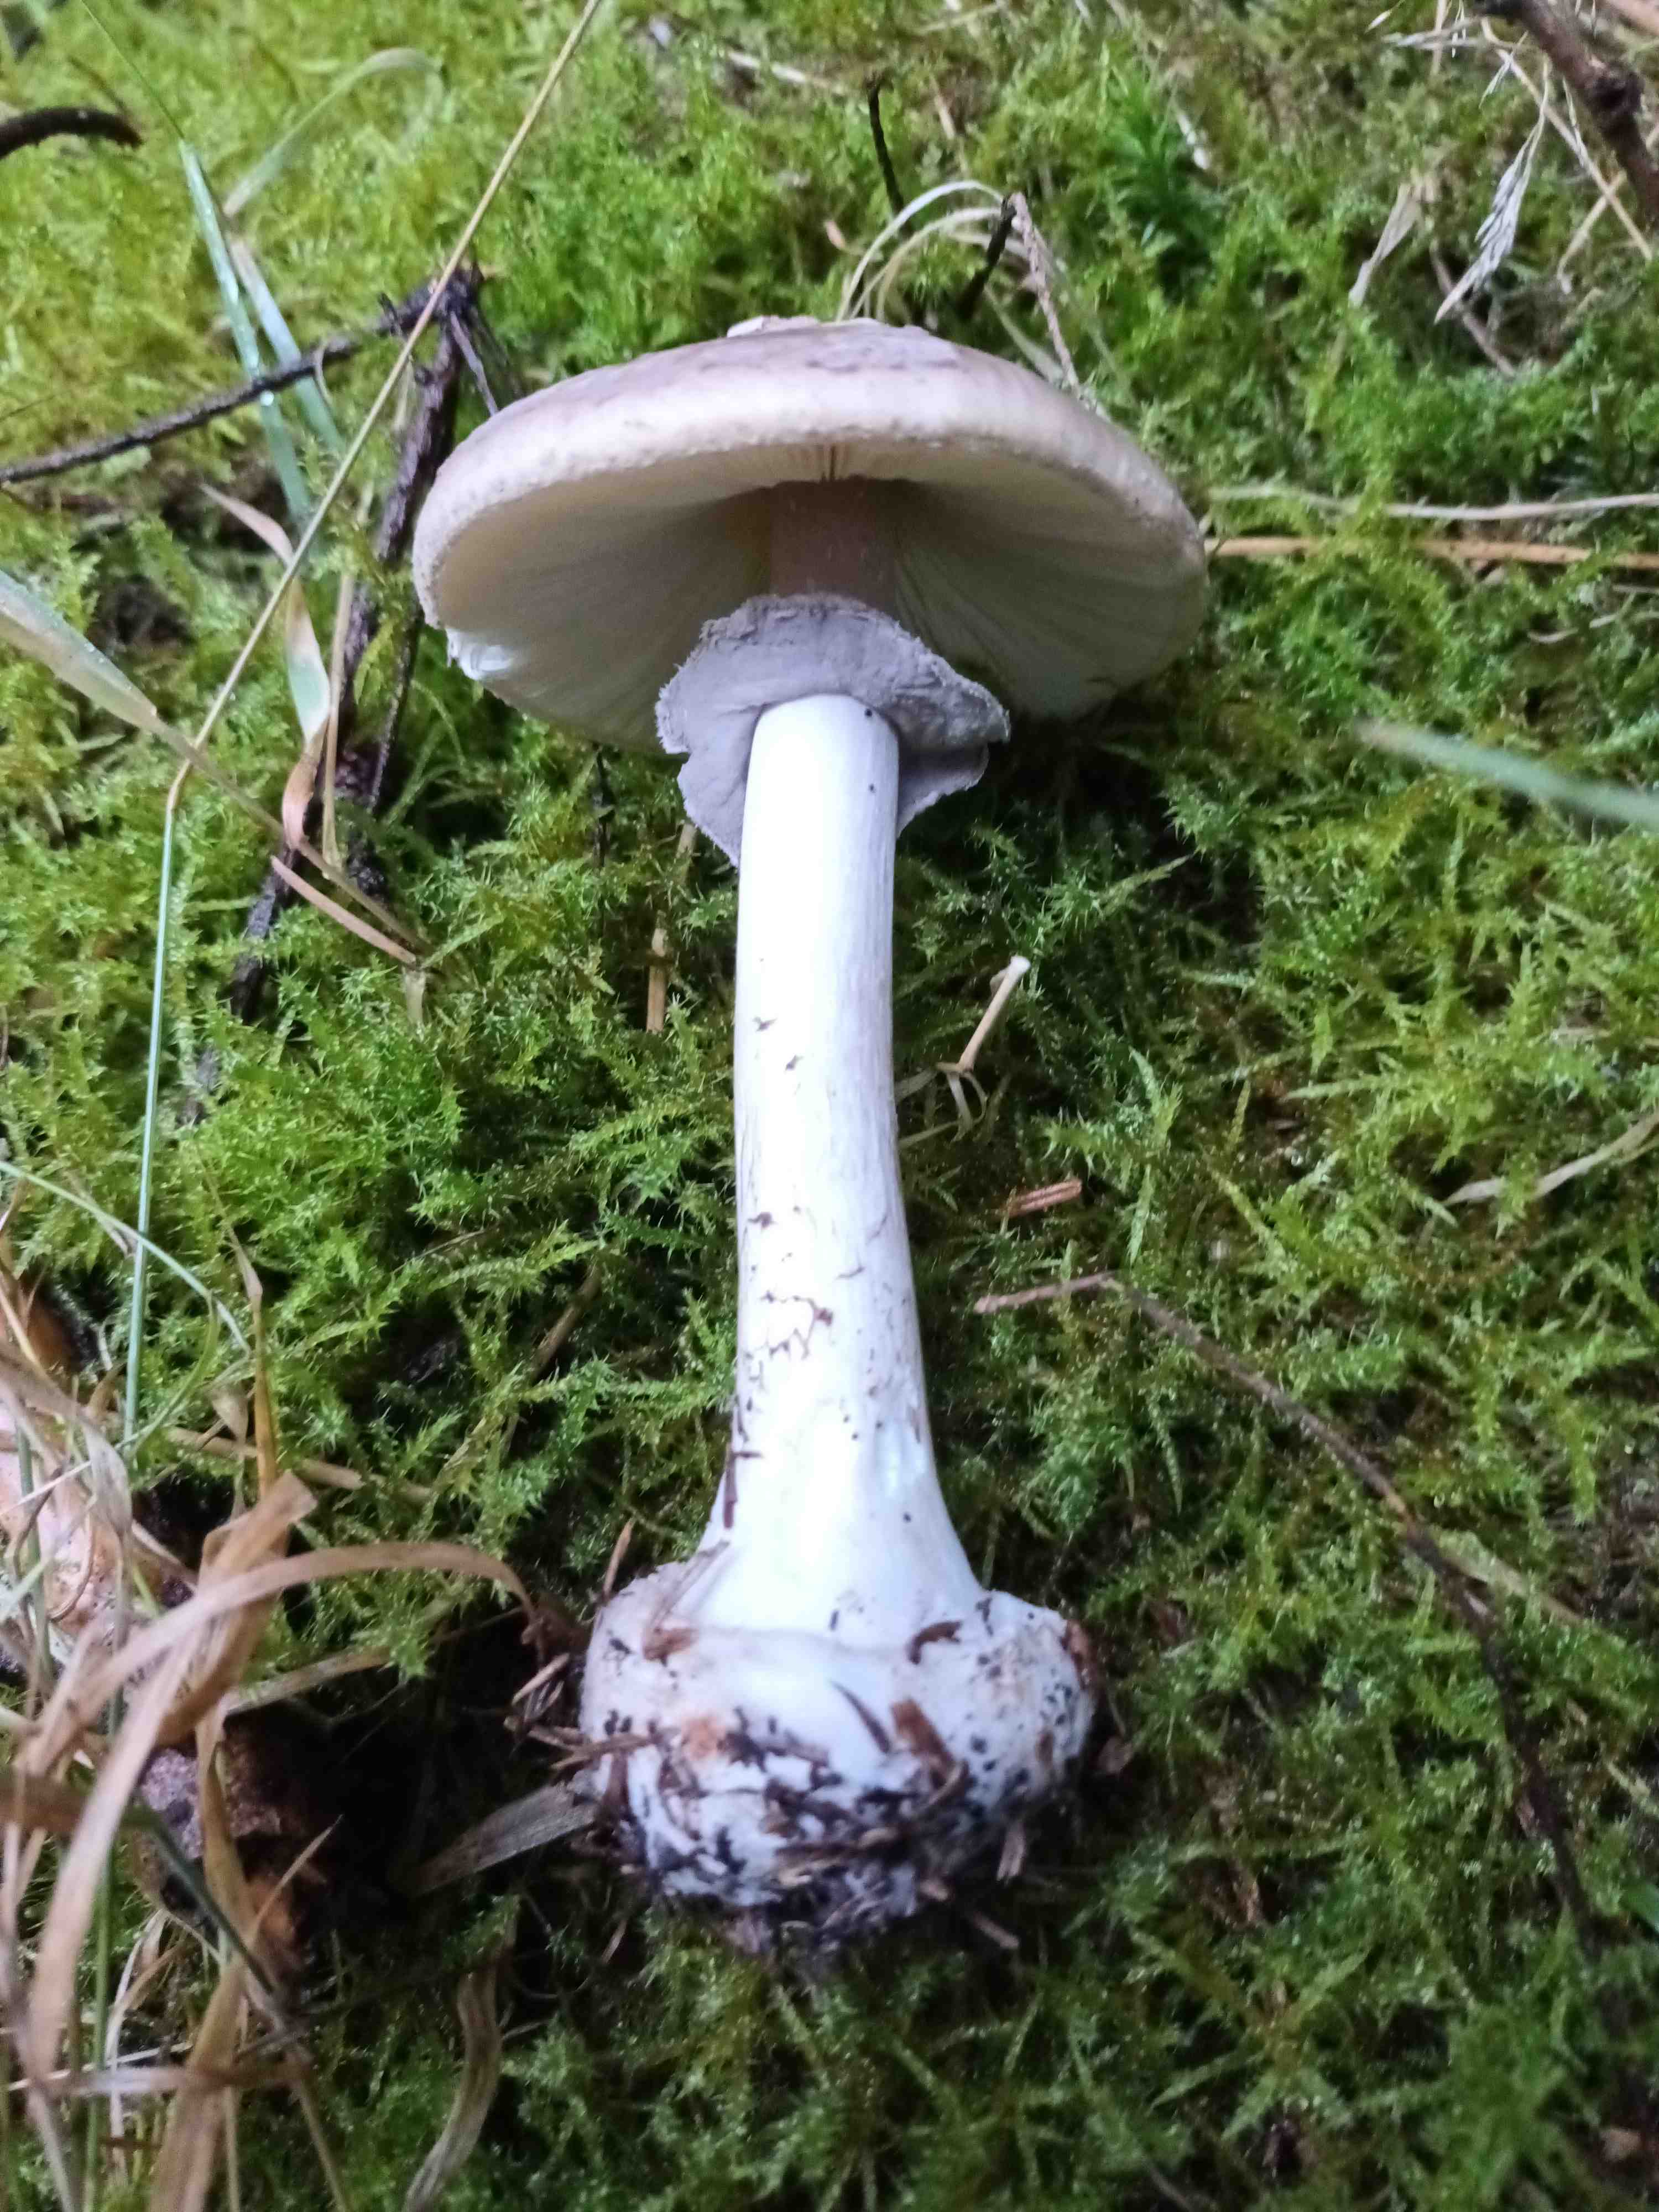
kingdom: Fungi
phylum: Basidiomycota
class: Agaricomycetes
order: Agaricales
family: Amanitaceae
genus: Amanita
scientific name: Amanita porphyria
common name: porfyr-fluesvamp
